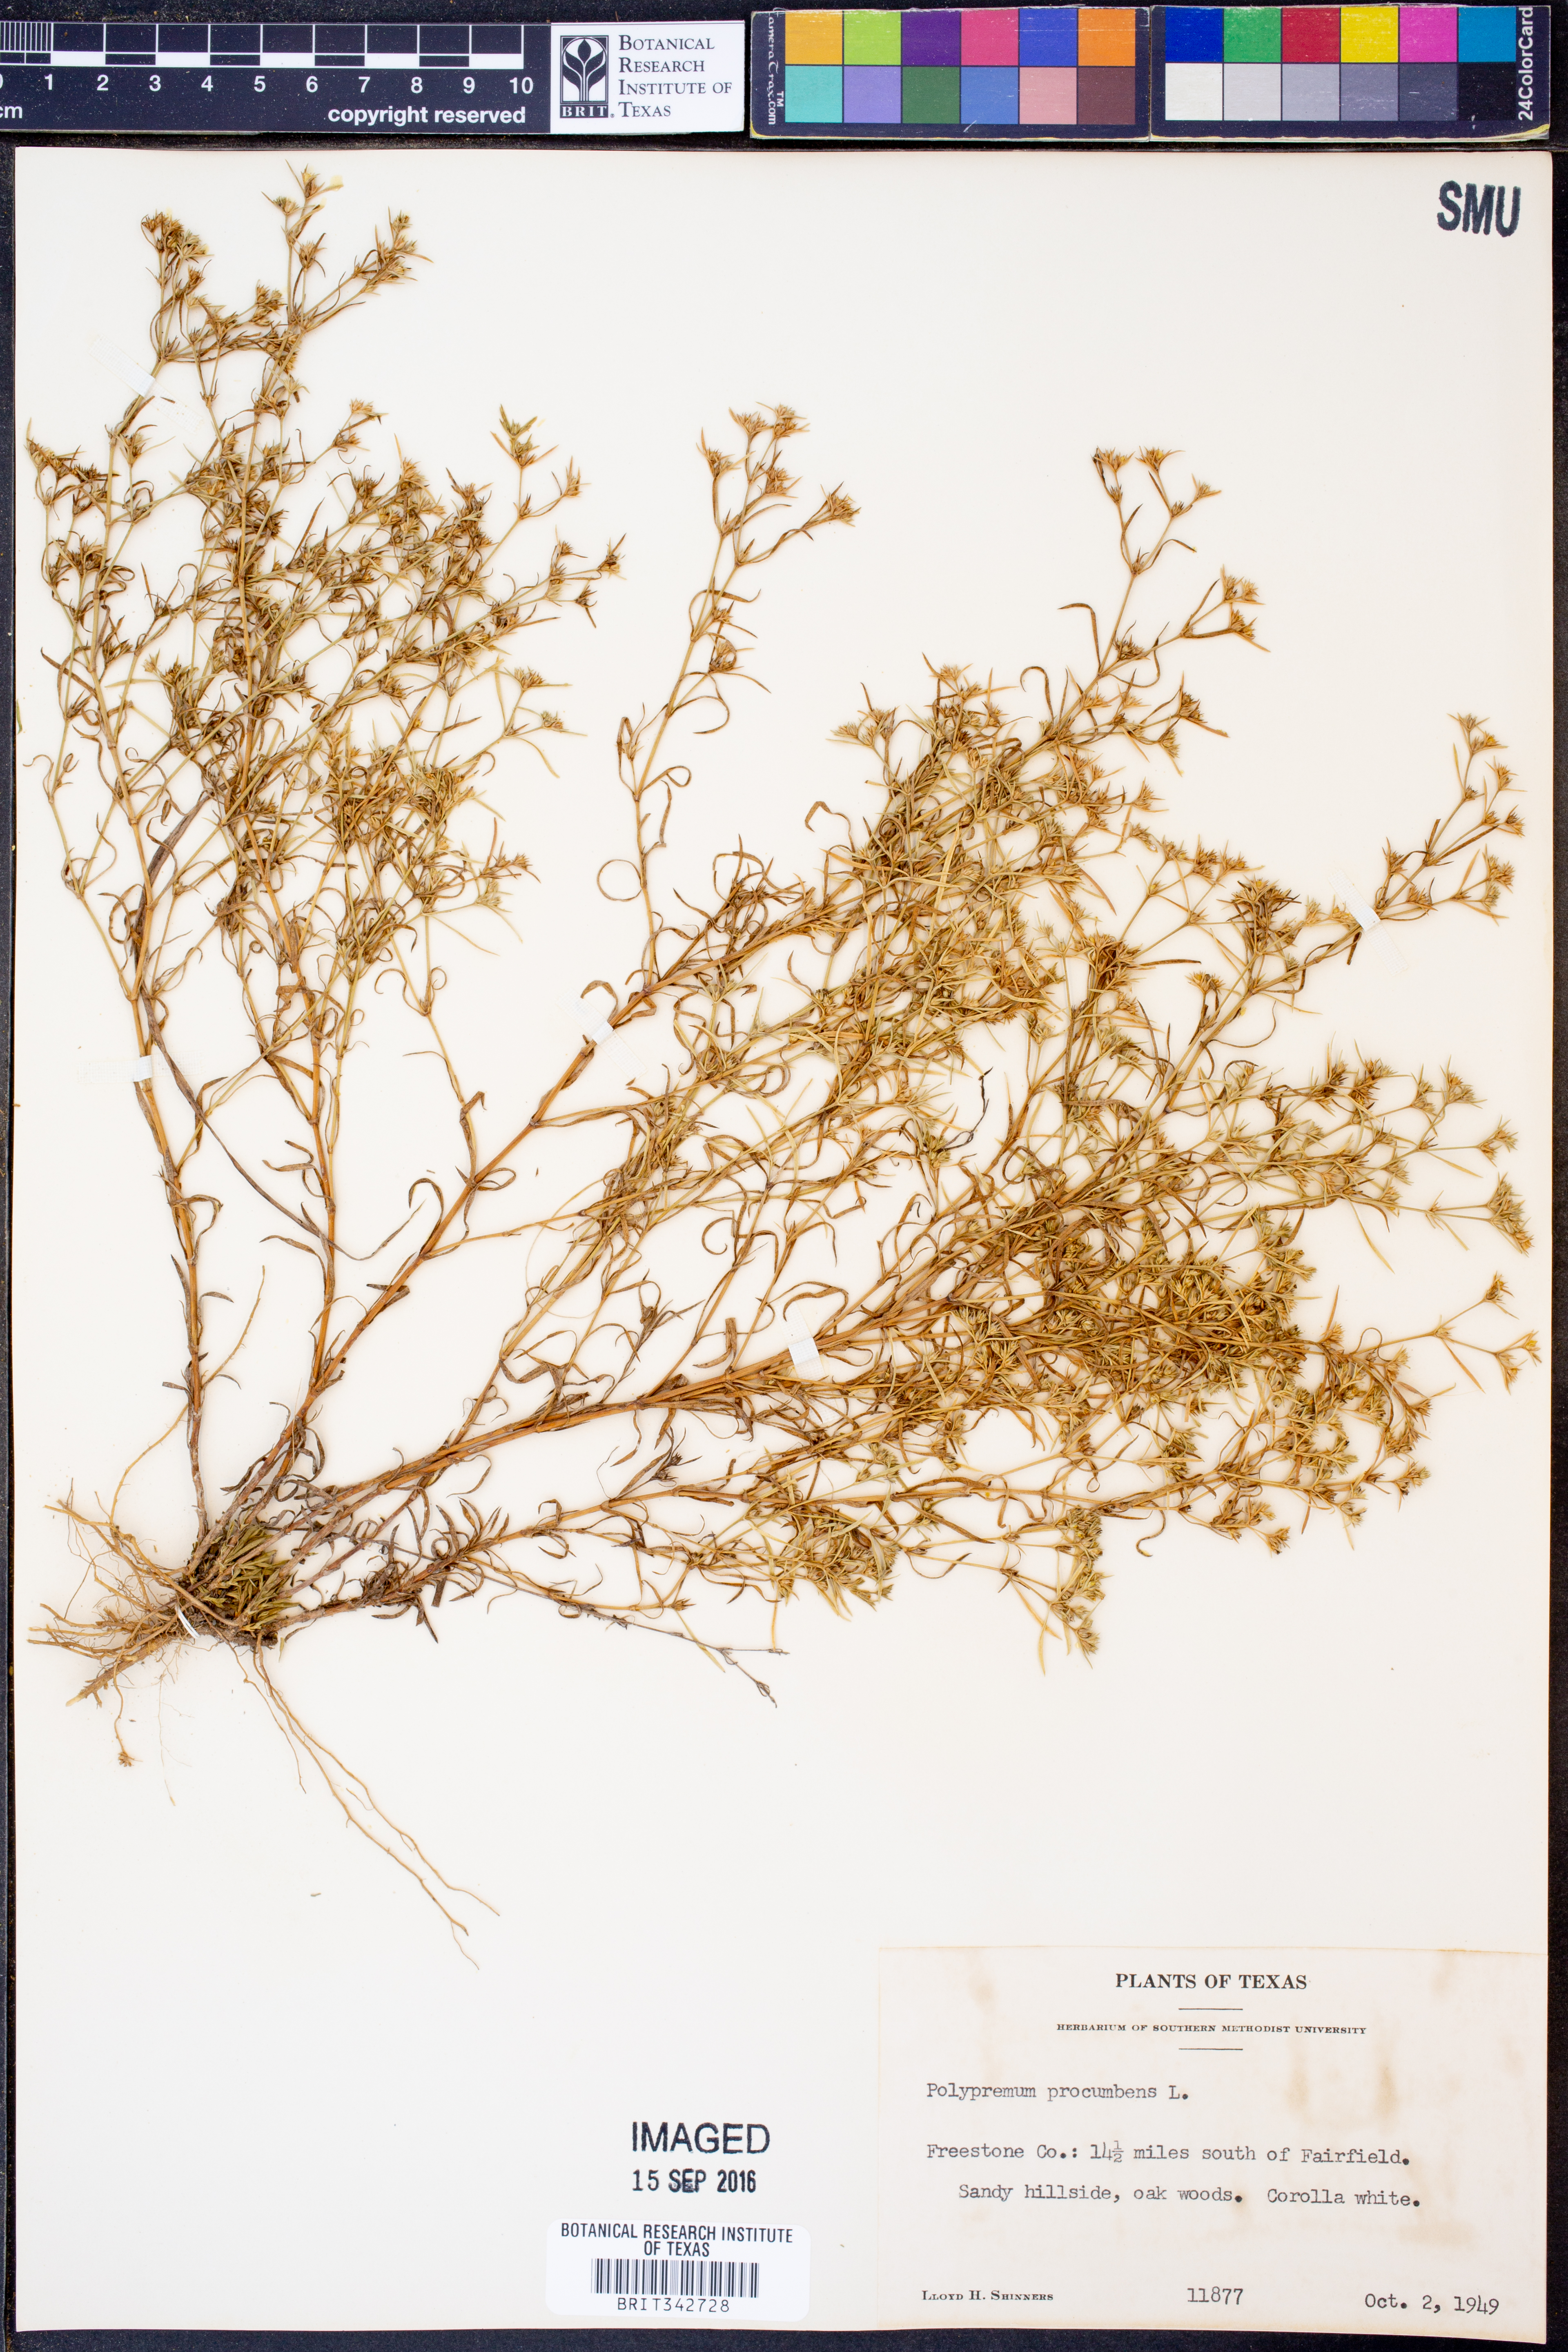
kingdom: Plantae
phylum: Tracheophyta
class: Magnoliopsida
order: Lamiales
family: Tetrachondraceae
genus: Polypremum
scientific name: Polypremum procumbens
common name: Juniper-leaf
